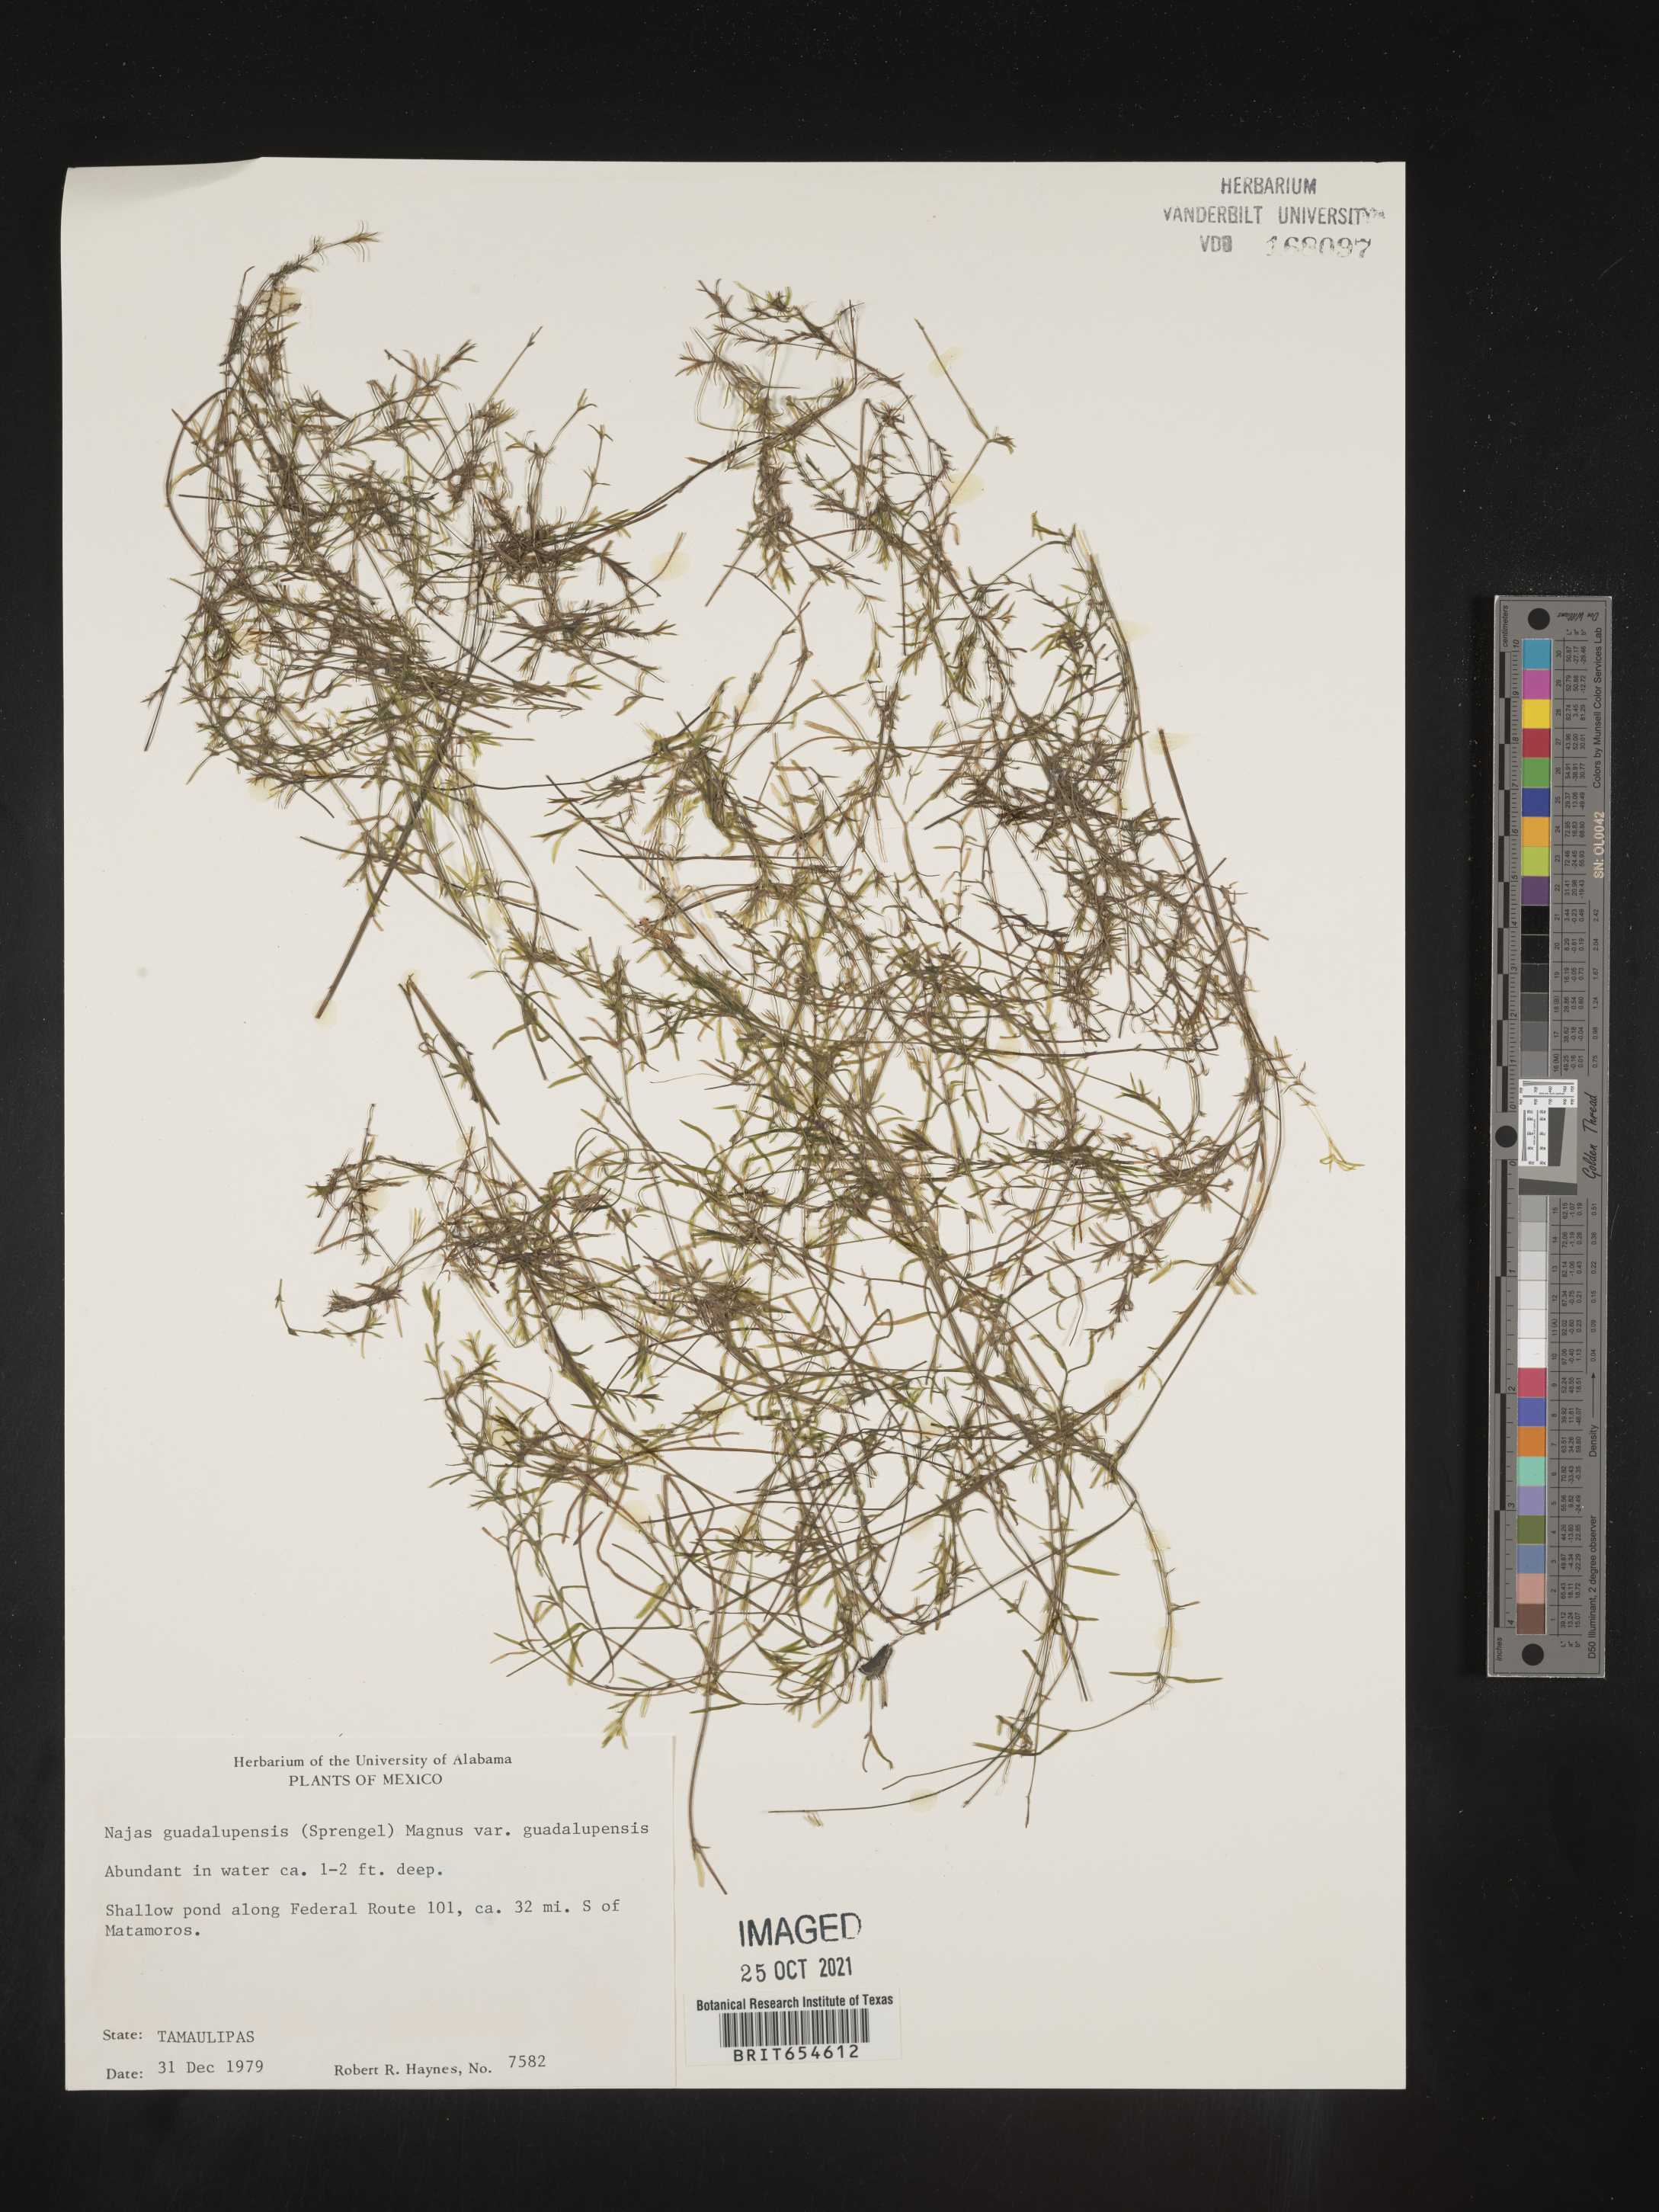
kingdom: Plantae
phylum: Tracheophyta
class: Liliopsida
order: Alismatales
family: Hydrocharitaceae
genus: Najas
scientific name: Najas
